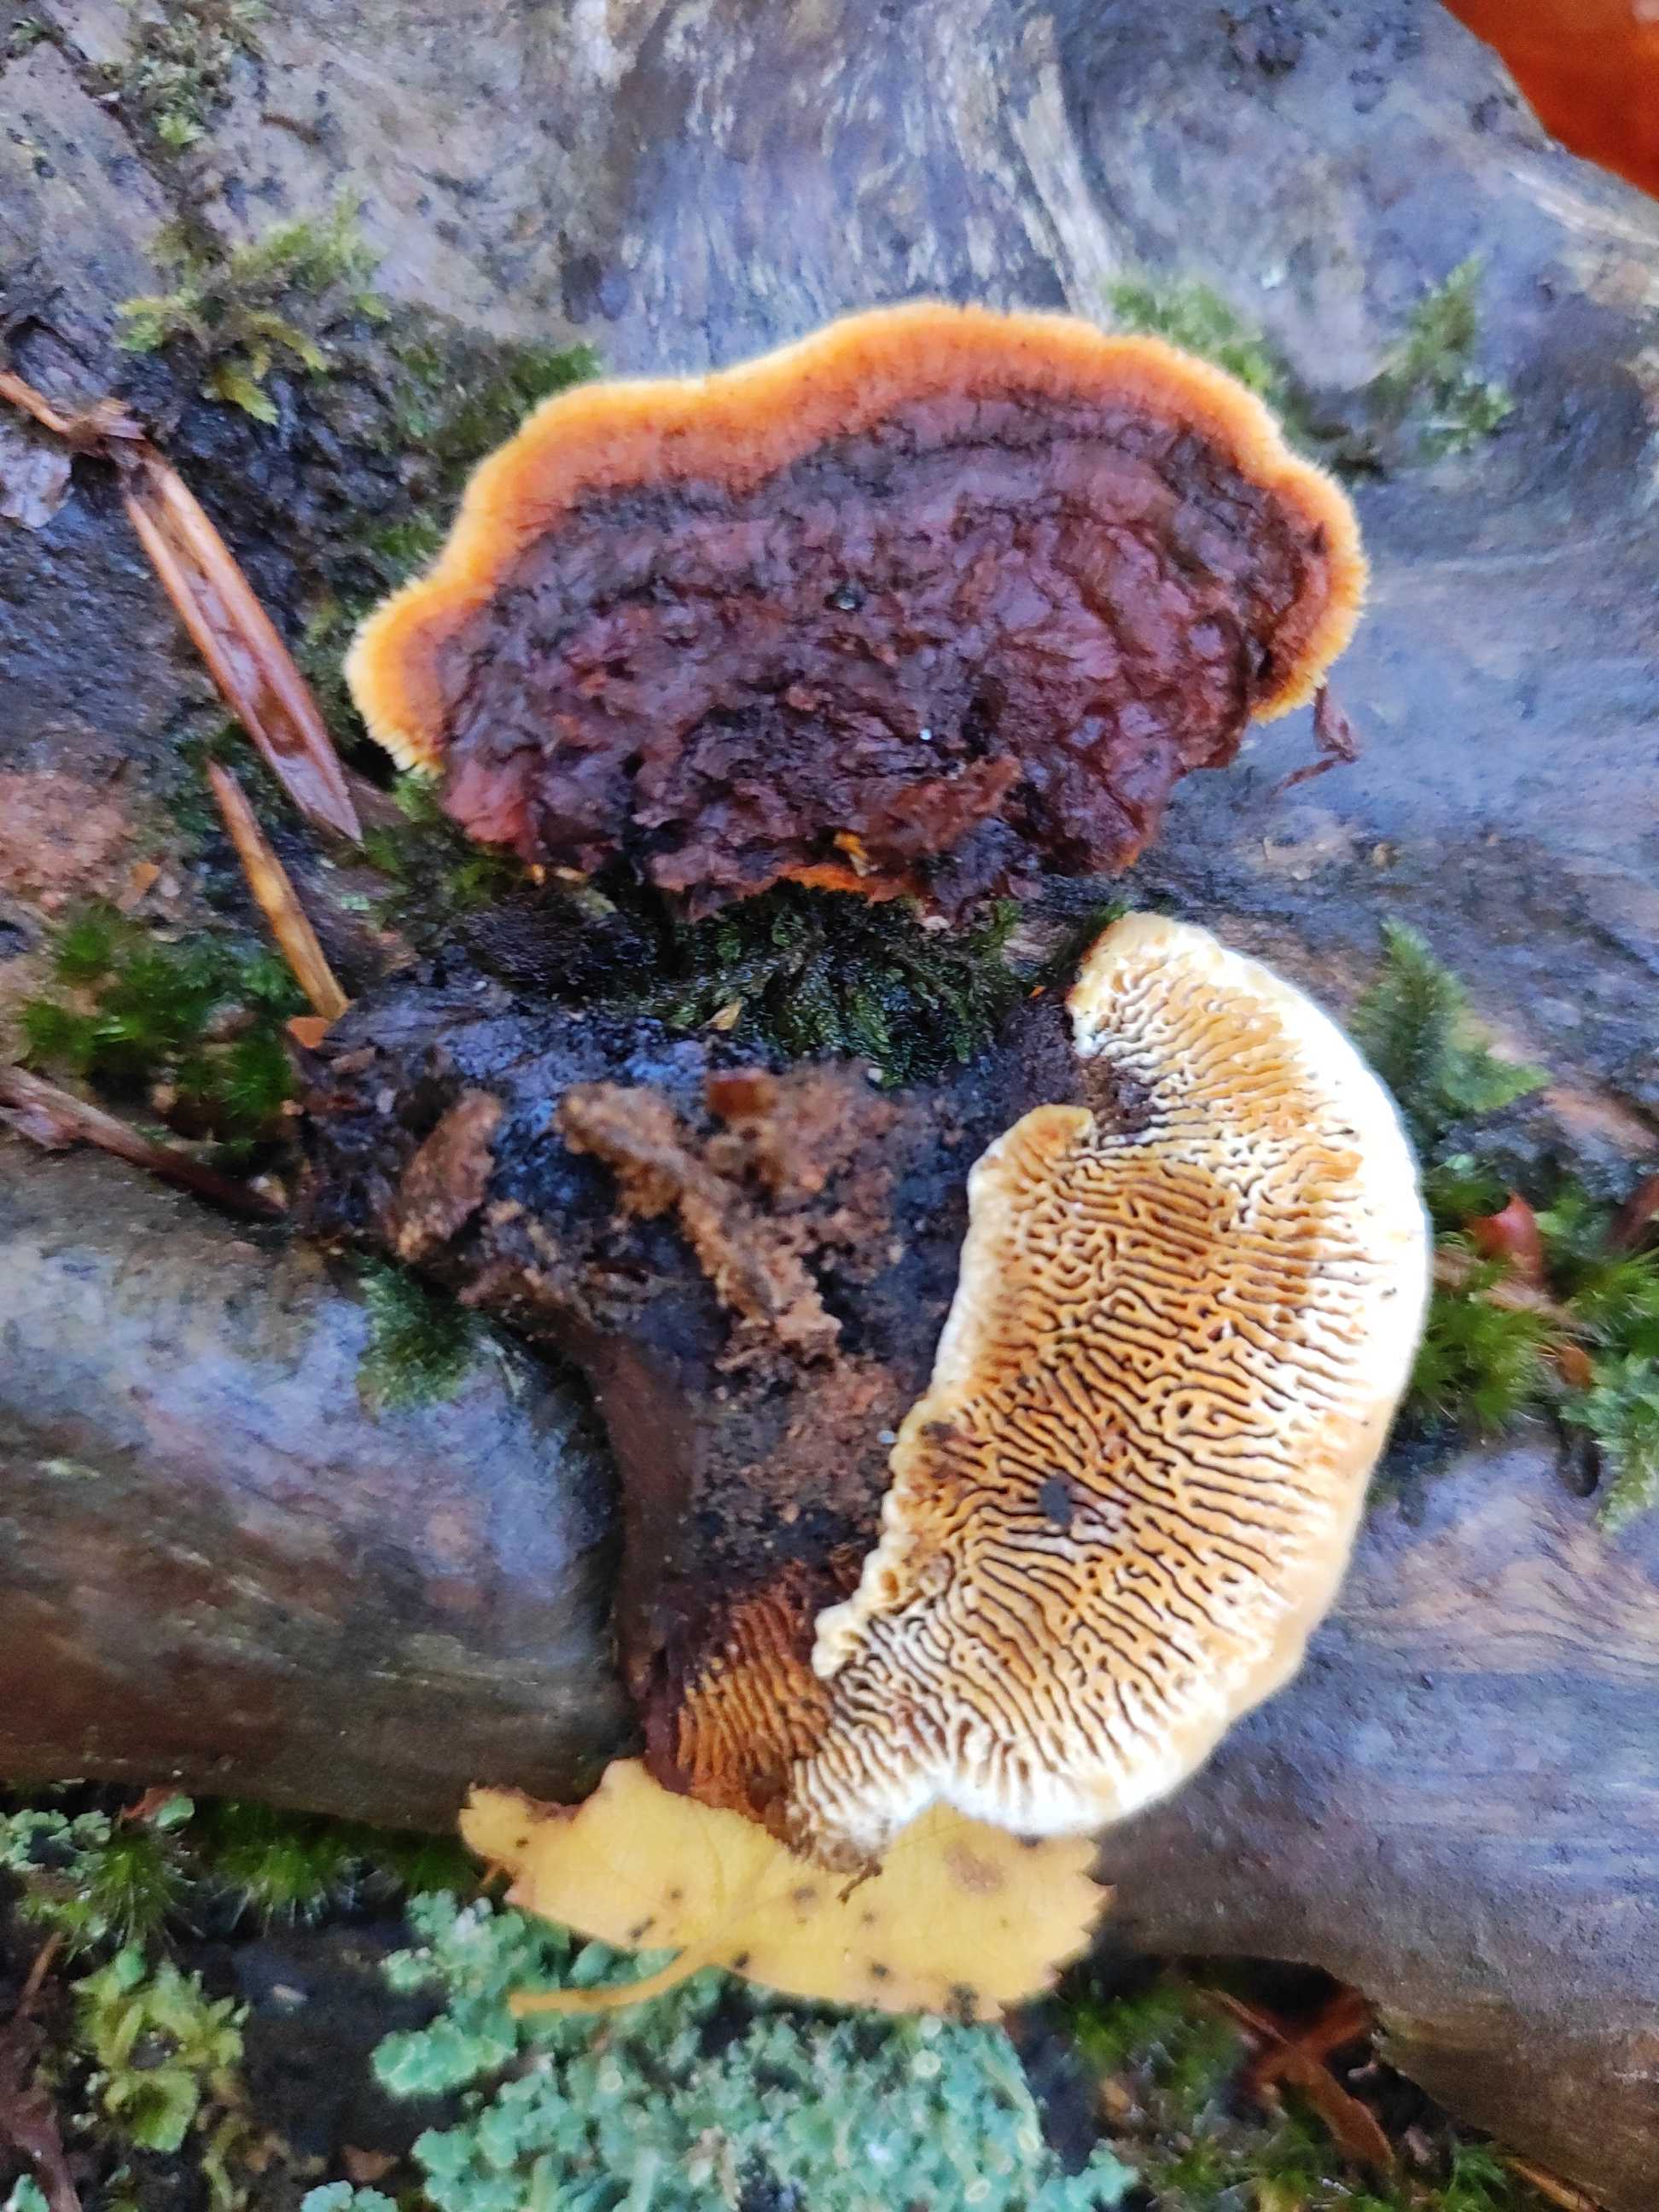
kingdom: Fungi
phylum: Basidiomycota
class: Agaricomycetes
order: Gloeophyllales
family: Gloeophyllaceae
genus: Gloeophyllum
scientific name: Gloeophyllum sepiarium
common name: fyrre-korkhat
